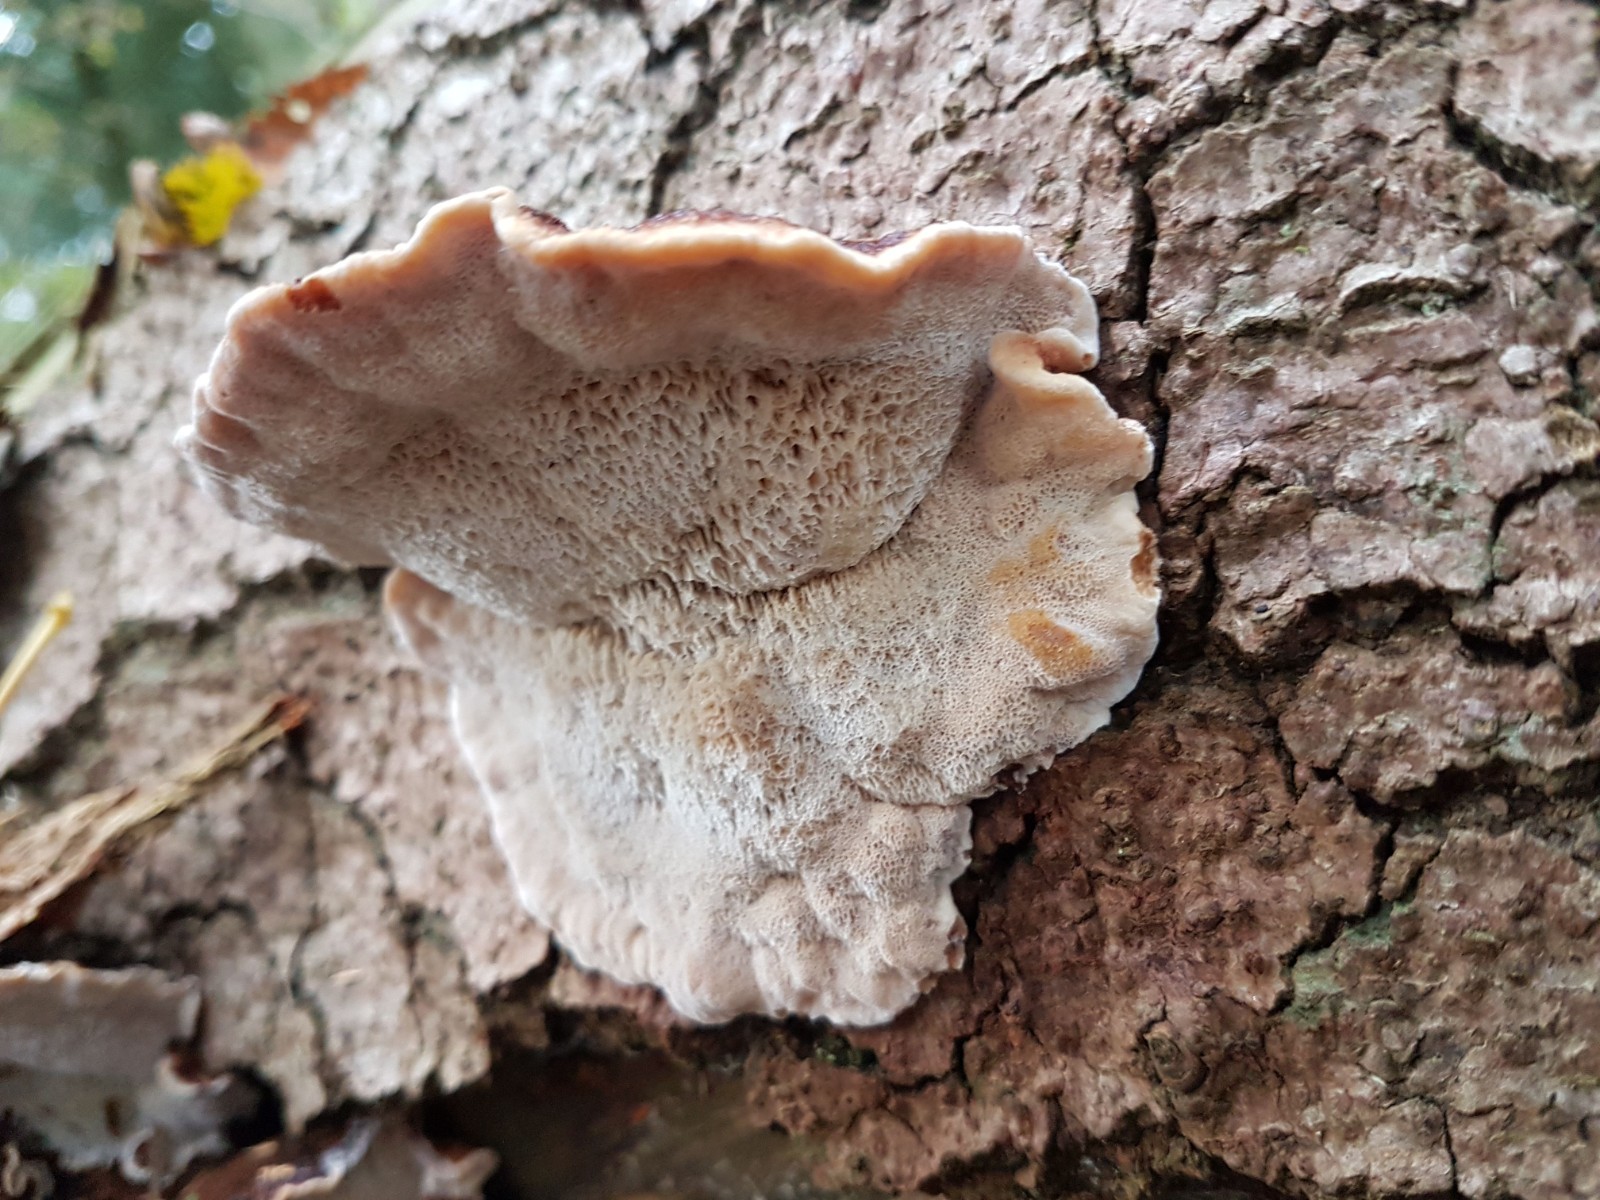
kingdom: Fungi
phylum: Basidiomycota
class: Agaricomycetes
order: Polyporales
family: Ischnodermataceae
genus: Ischnoderma
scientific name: Ischnoderma benzoinum
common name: gran-tjæreporesvamp
